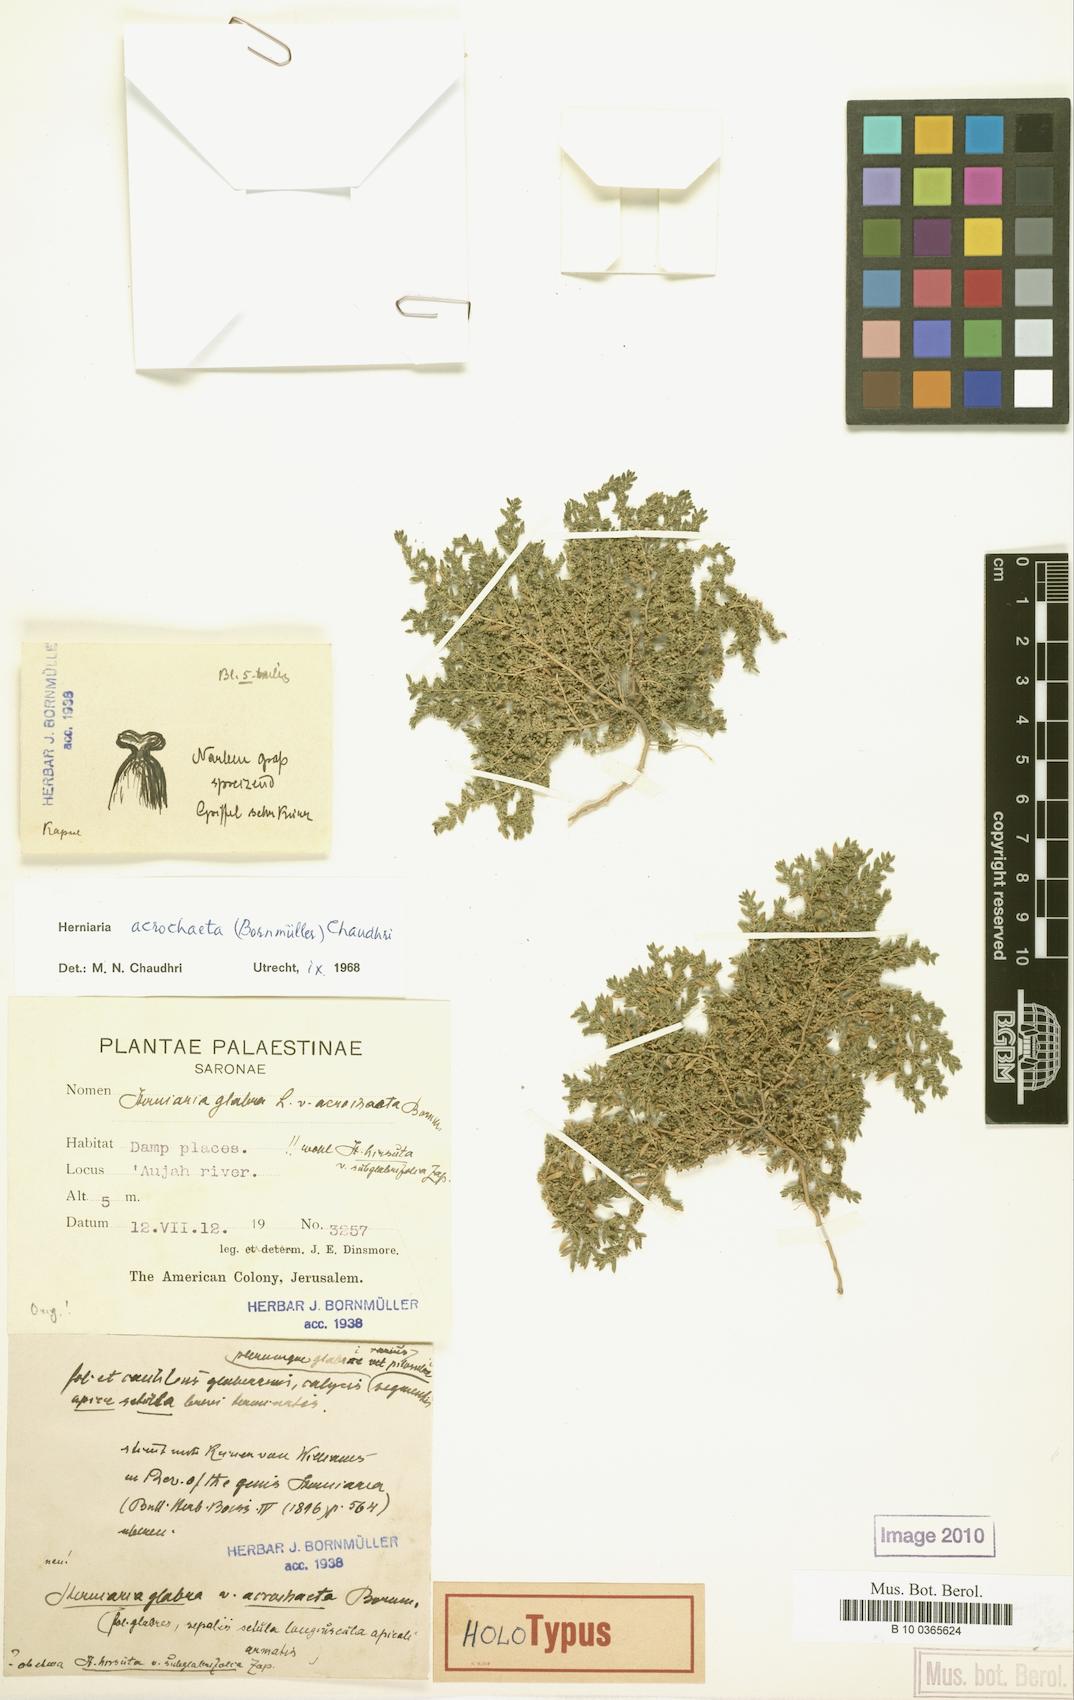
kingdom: Plantae
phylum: Tracheophyta
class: Magnoliopsida
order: Caryophyllales
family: Caryophyllaceae
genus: Herniaria
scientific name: Herniaria acrochaeta
